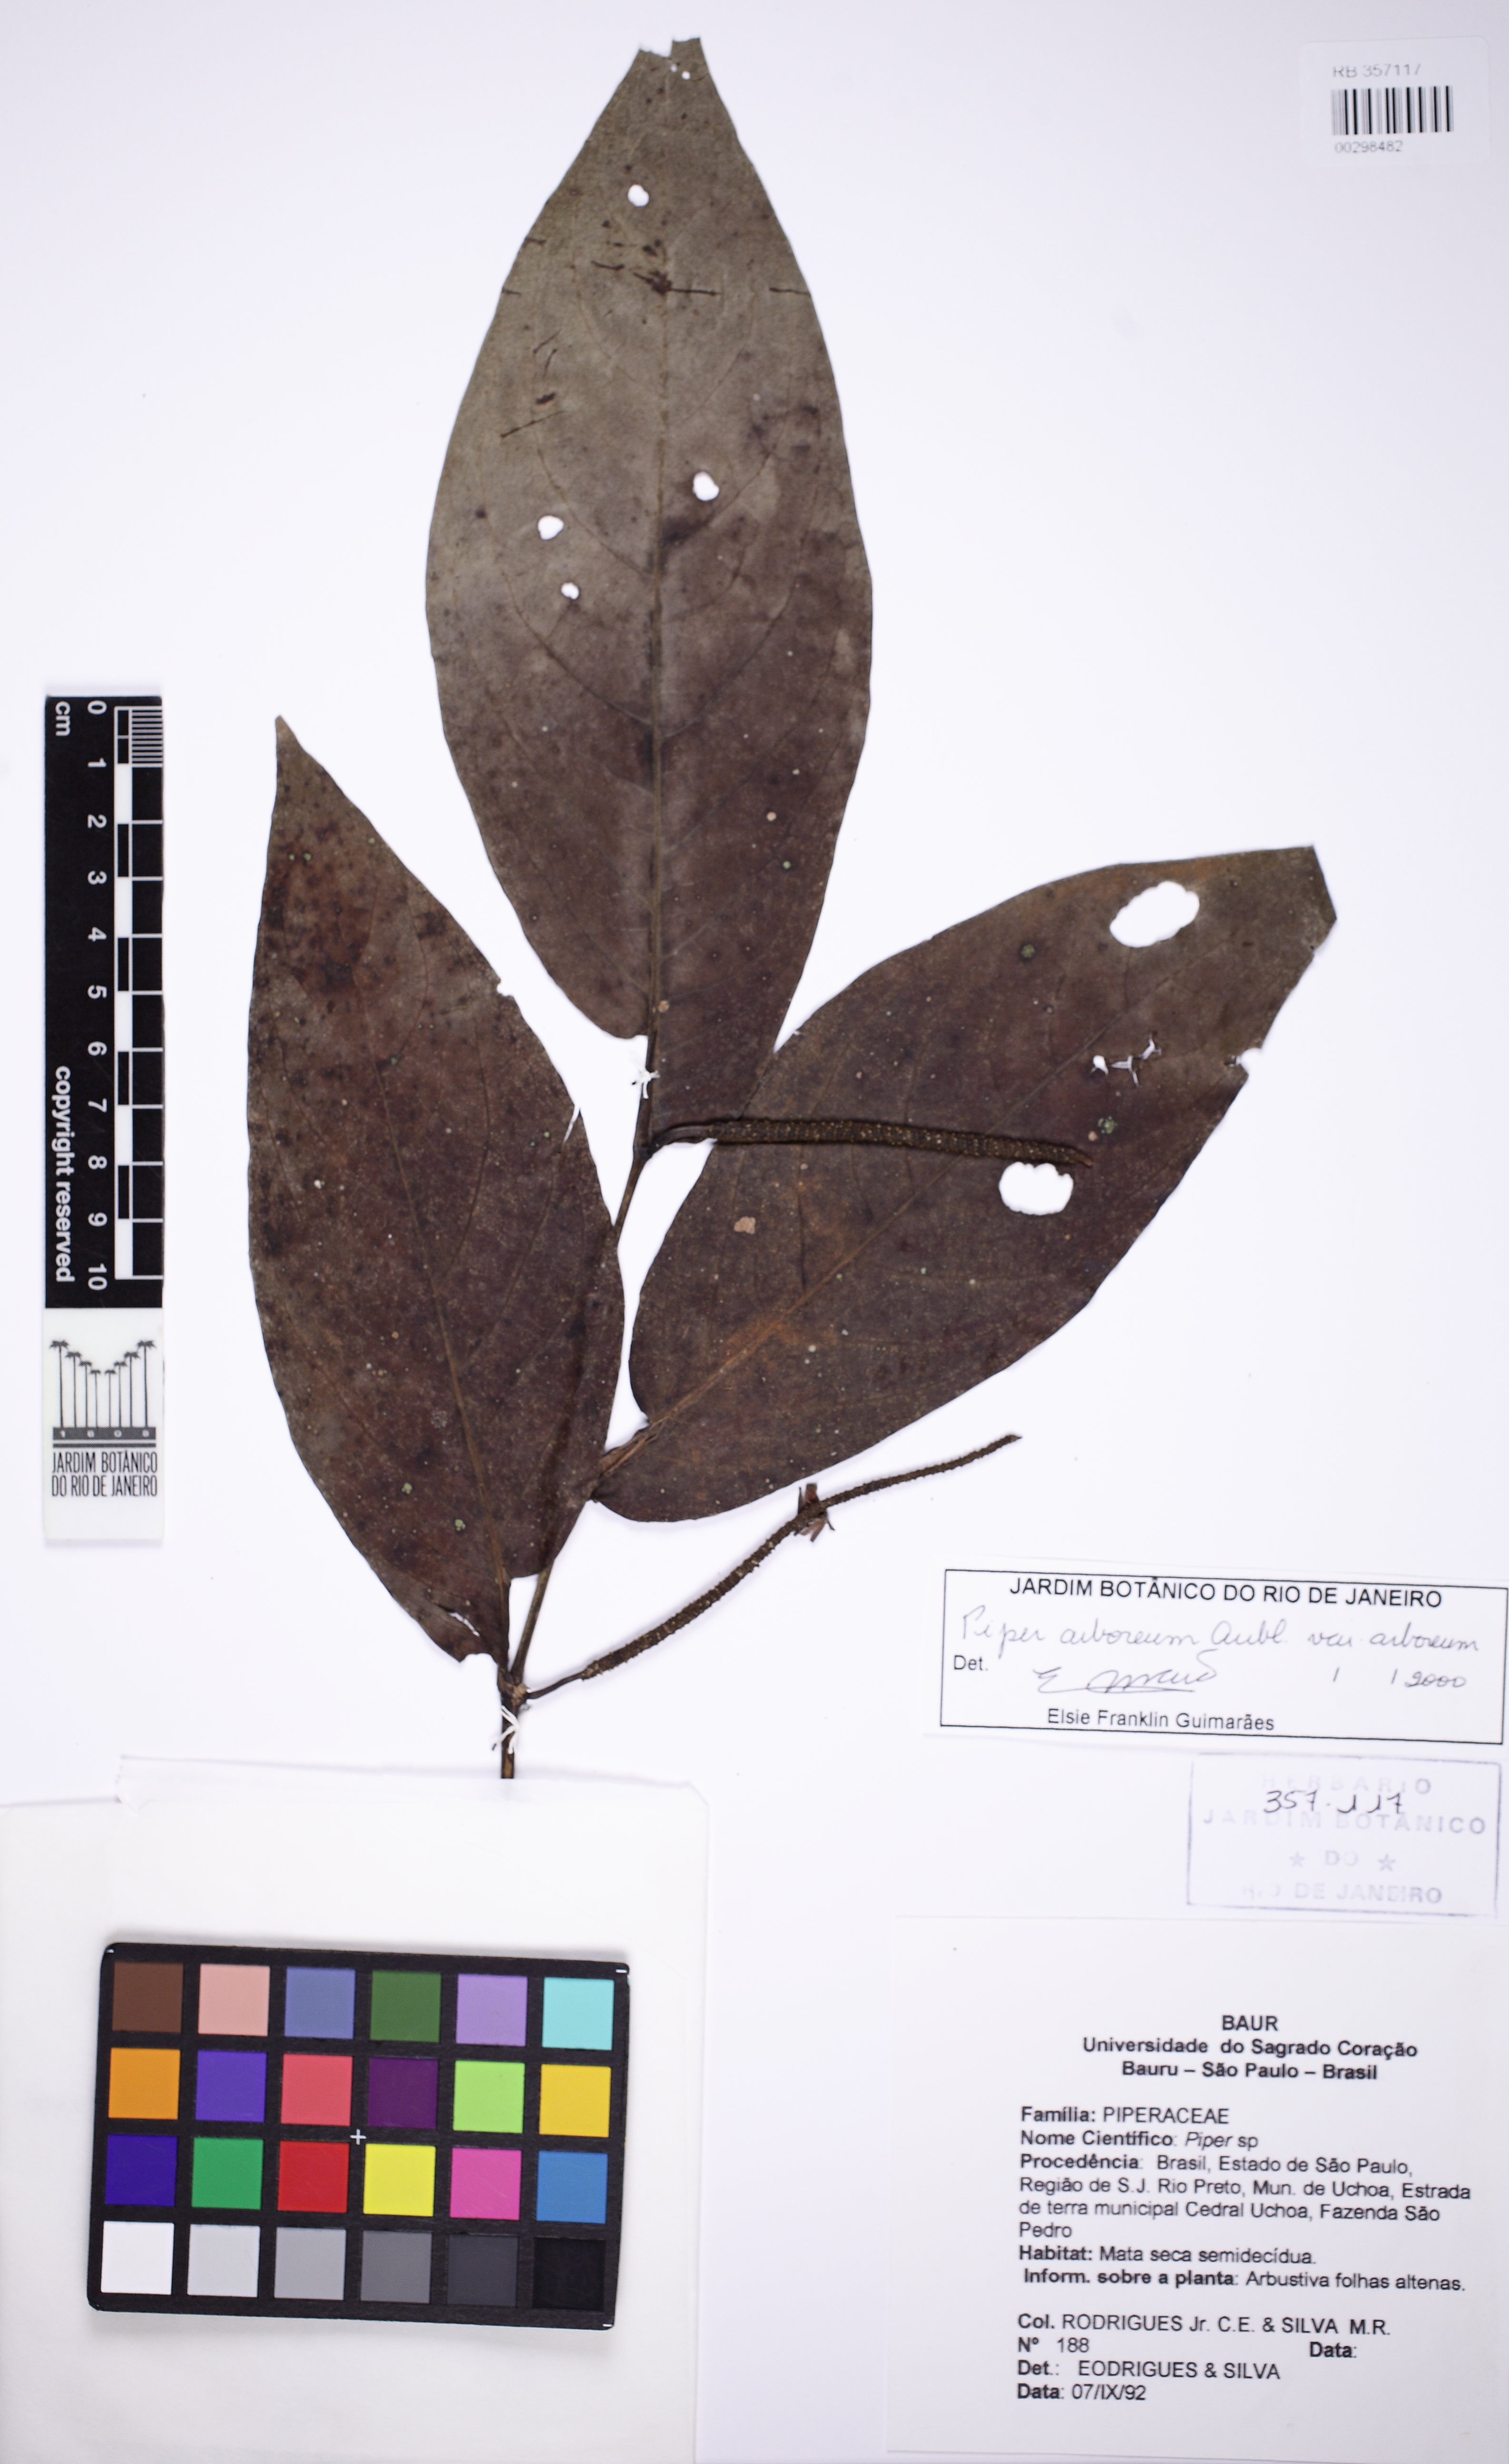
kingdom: Plantae
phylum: Tracheophyta
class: Magnoliopsida
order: Piperales
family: Piperaceae
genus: Piper
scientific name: Piper arboreum
